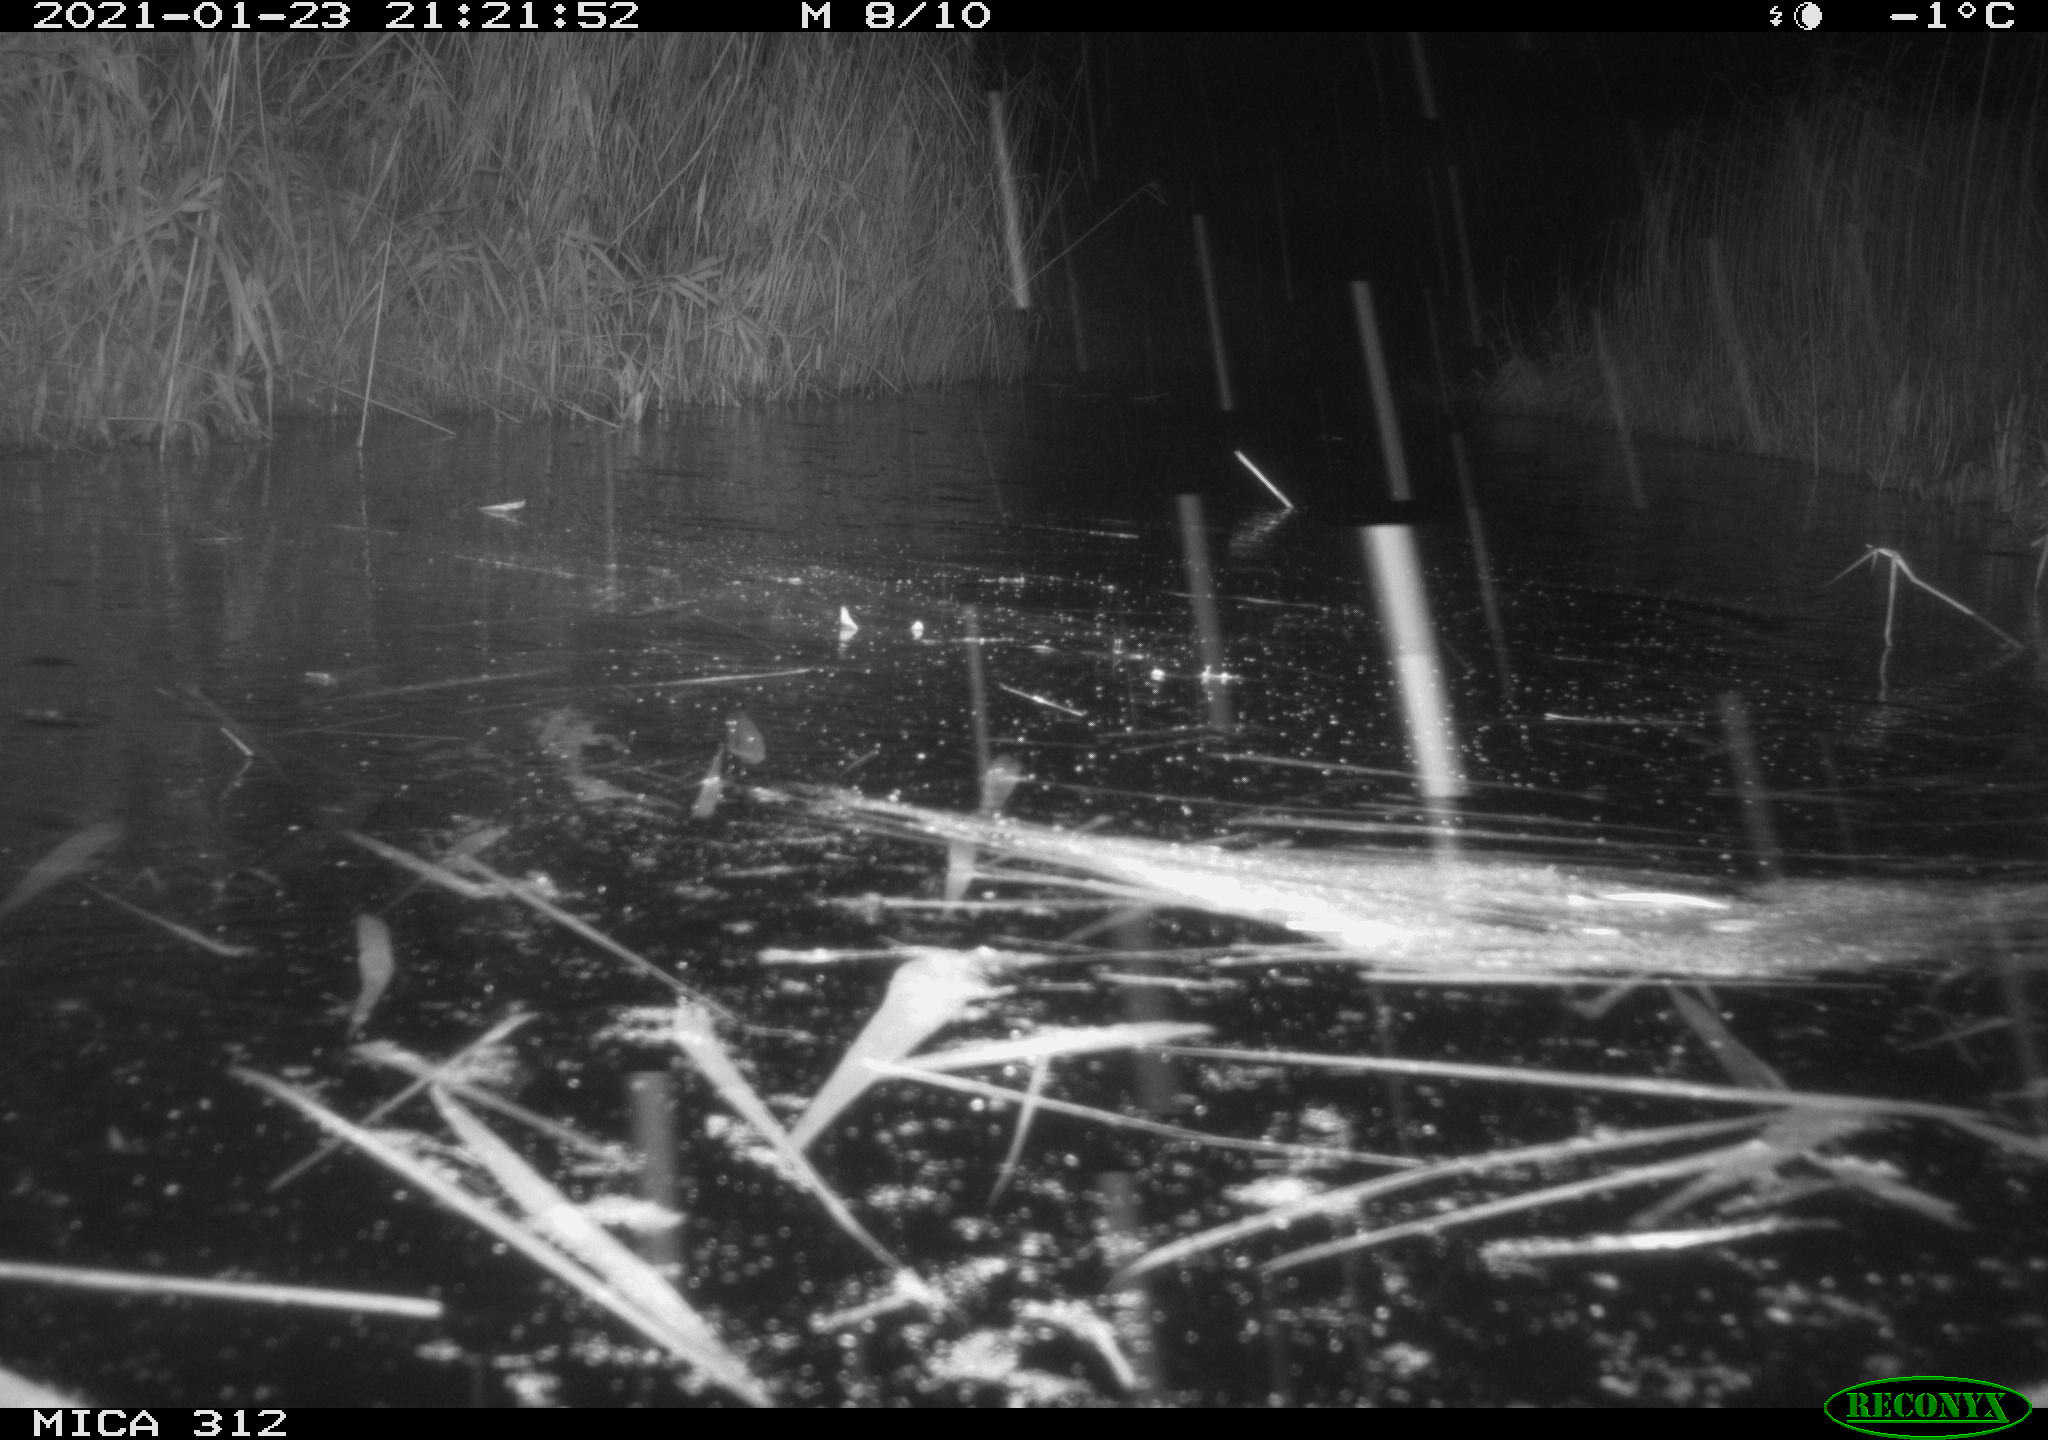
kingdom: Animalia
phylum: Chordata
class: Mammalia
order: Rodentia
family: Muridae
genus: Rattus
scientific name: Rattus norvegicus
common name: Brown rat
